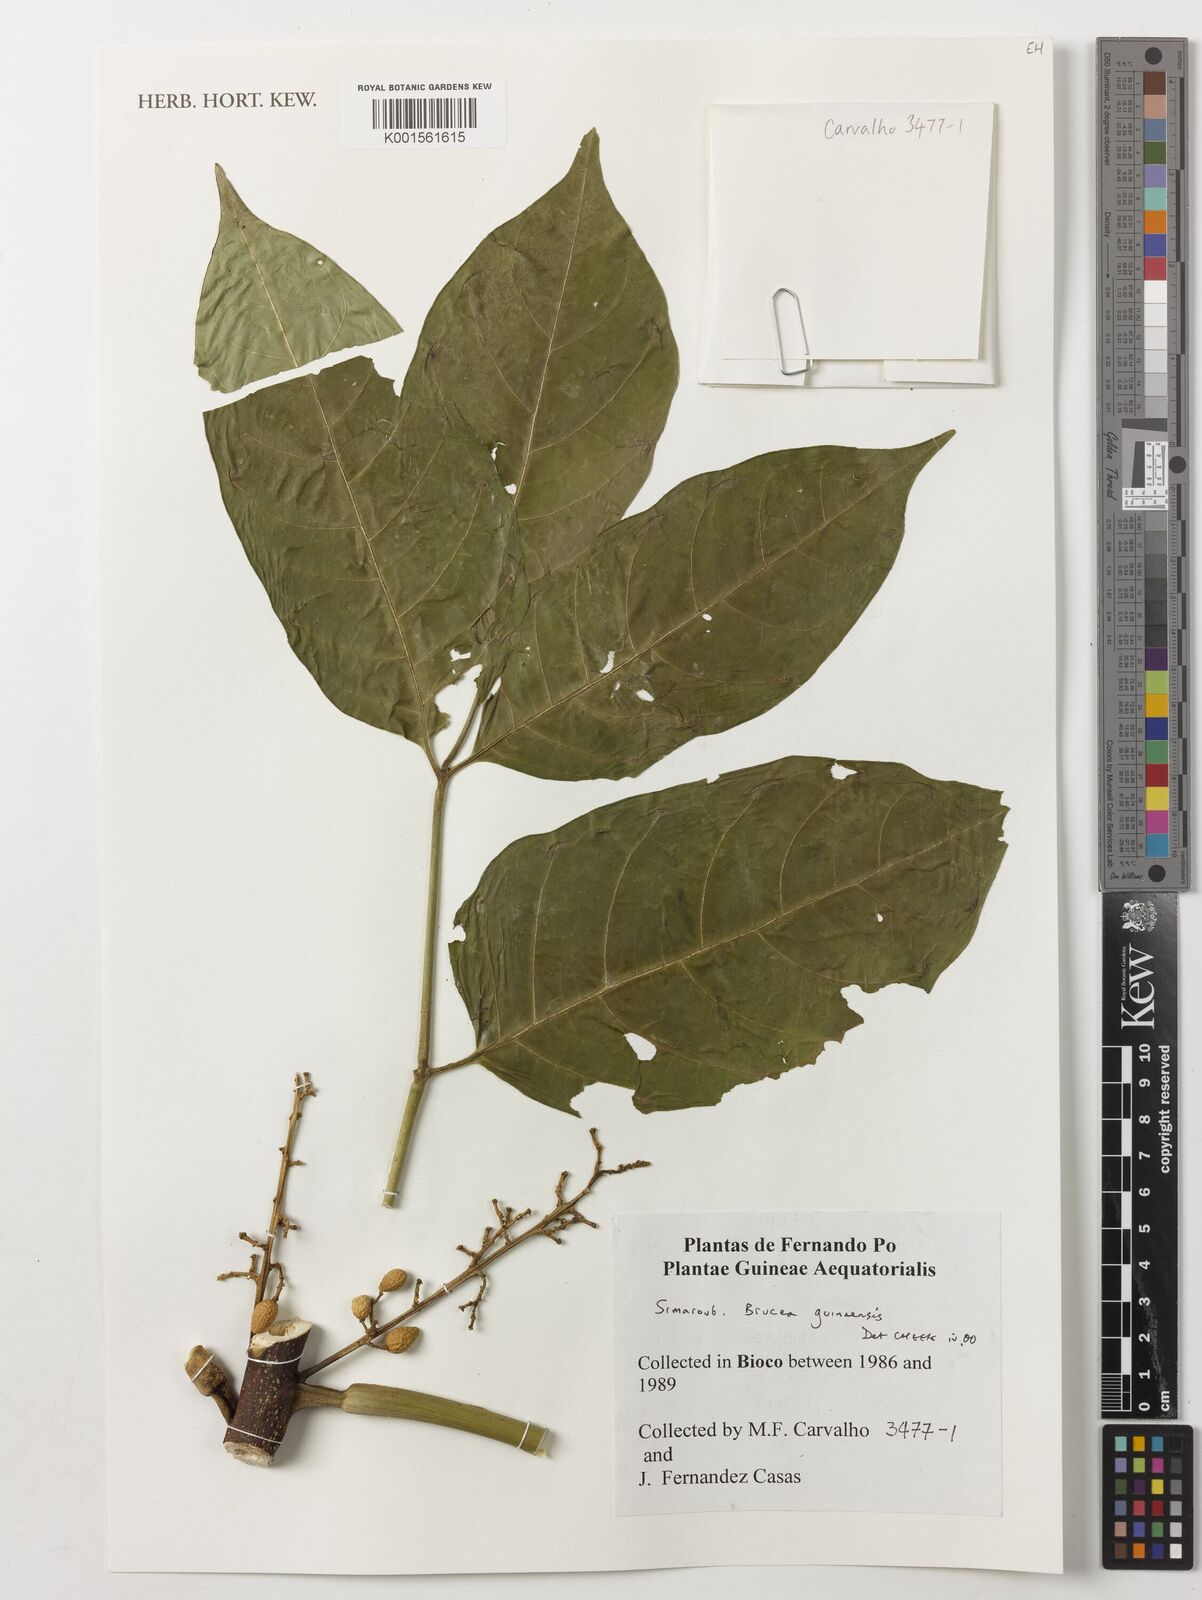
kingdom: Plantae
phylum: Tracheophyta
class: Magnoliopsida
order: Sapindales
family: Anacardiaceae
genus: Trichoscypha
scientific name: Trichoscypha smythei
